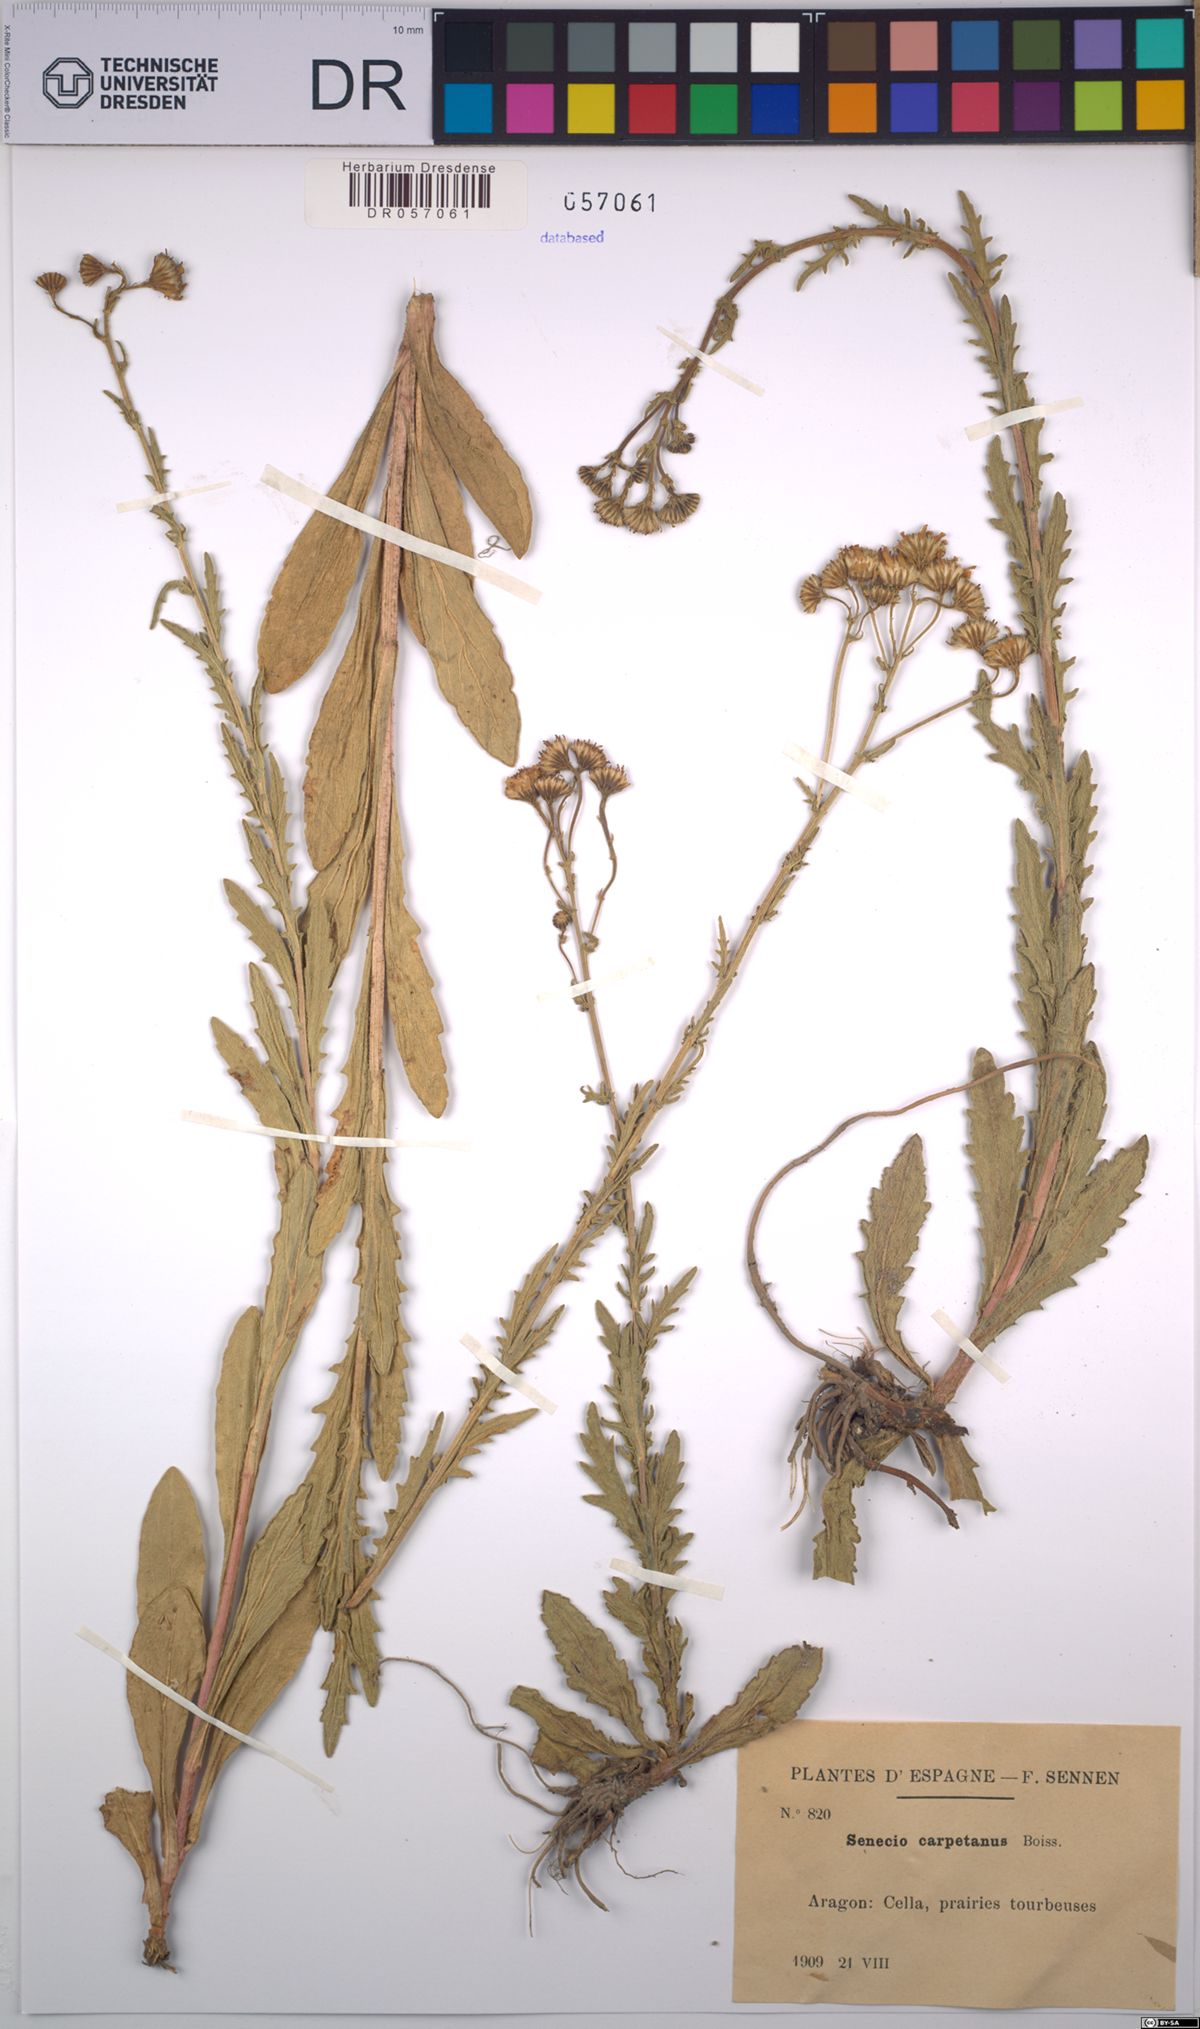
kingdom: Plantae
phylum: Tracheophyta
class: Magnoliopsida
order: Asterales
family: Asteraceae
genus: Senecio
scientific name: Senecio carpetanus
